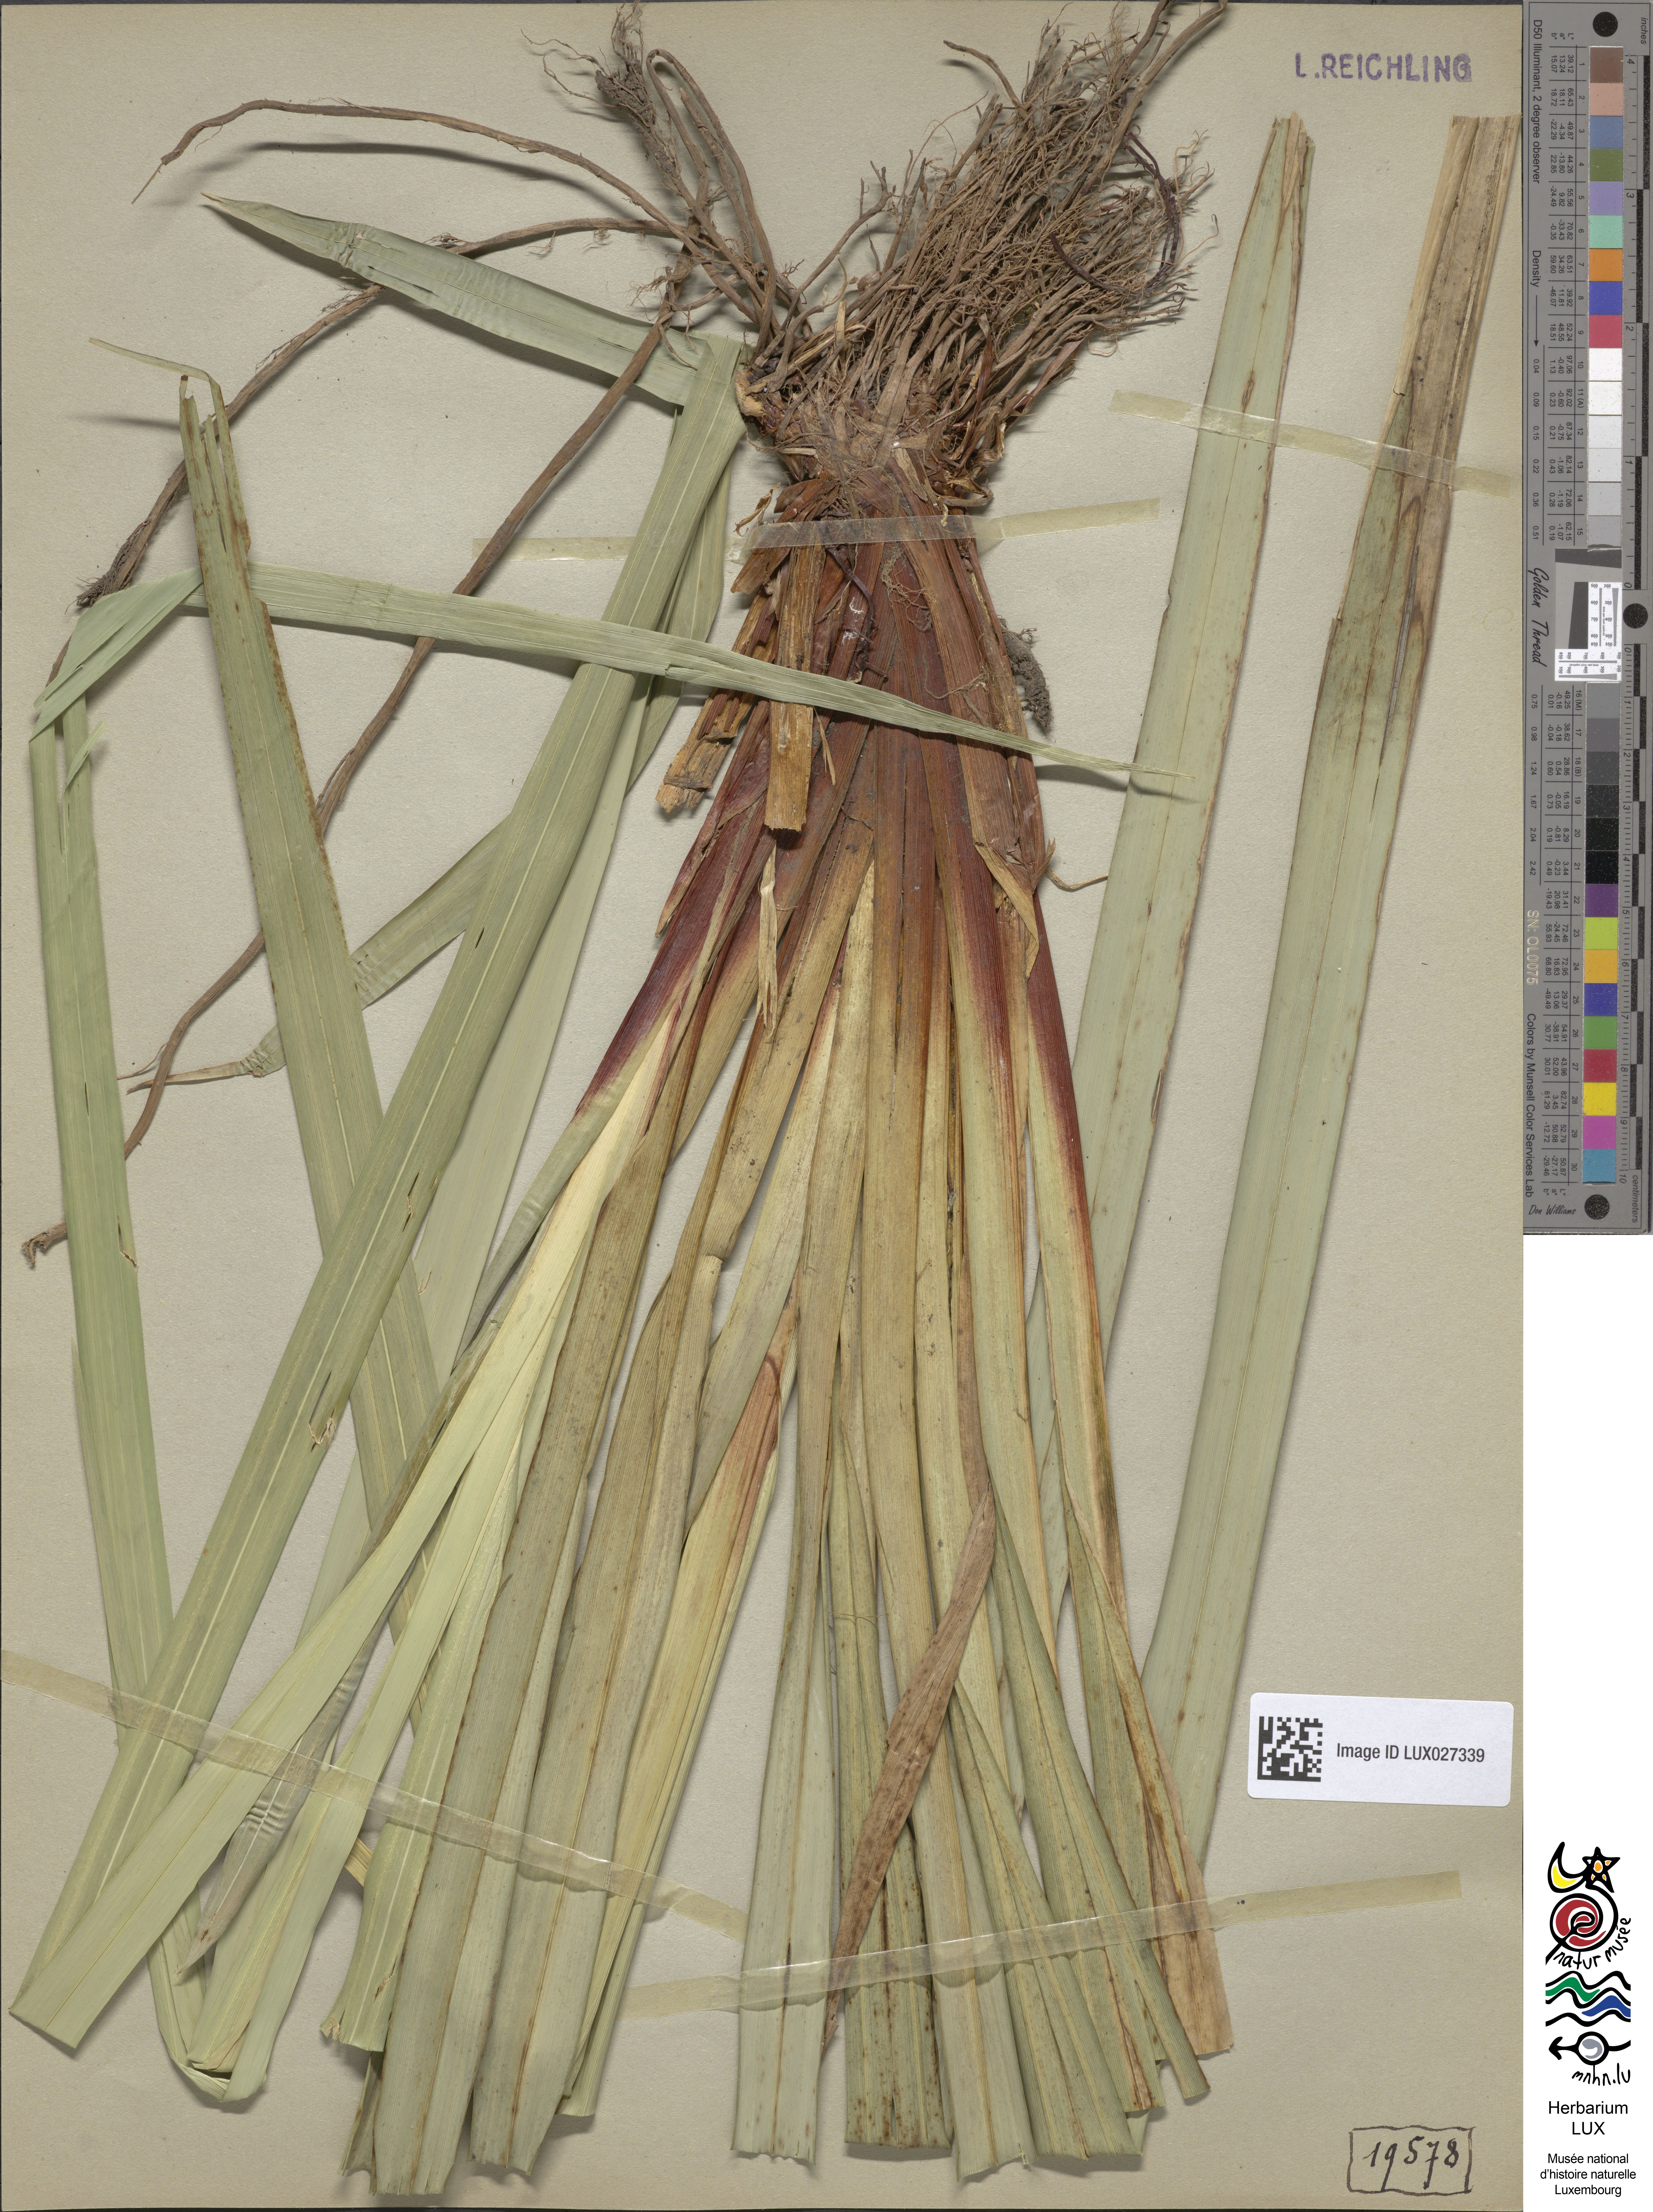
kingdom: Plantae
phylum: Tracheophyta
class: Liliopsida
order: Poales
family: Cyperaceae
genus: Carex
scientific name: Carex pendula
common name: Pendulous sedge
